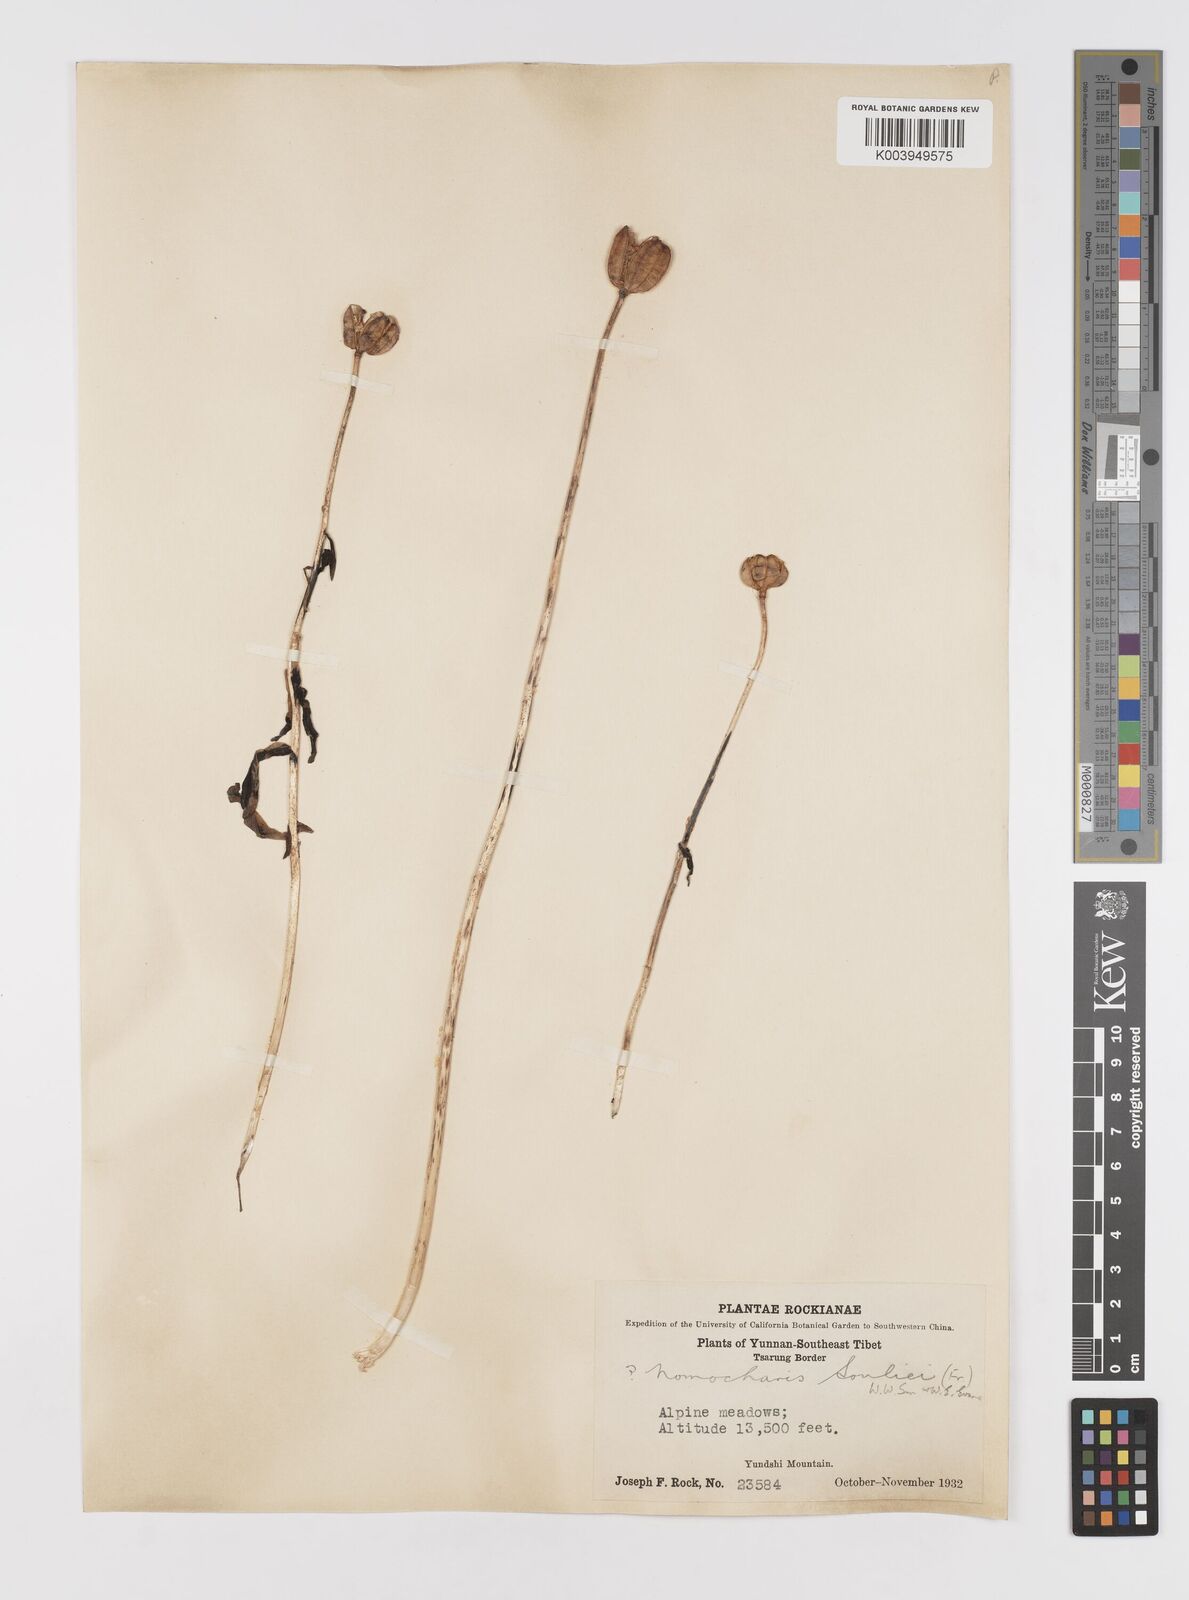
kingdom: Plantae
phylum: Tracheophyta
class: Liliopsida
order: Liliales
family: Liliaceae
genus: Lilium
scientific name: Lilium souliei
